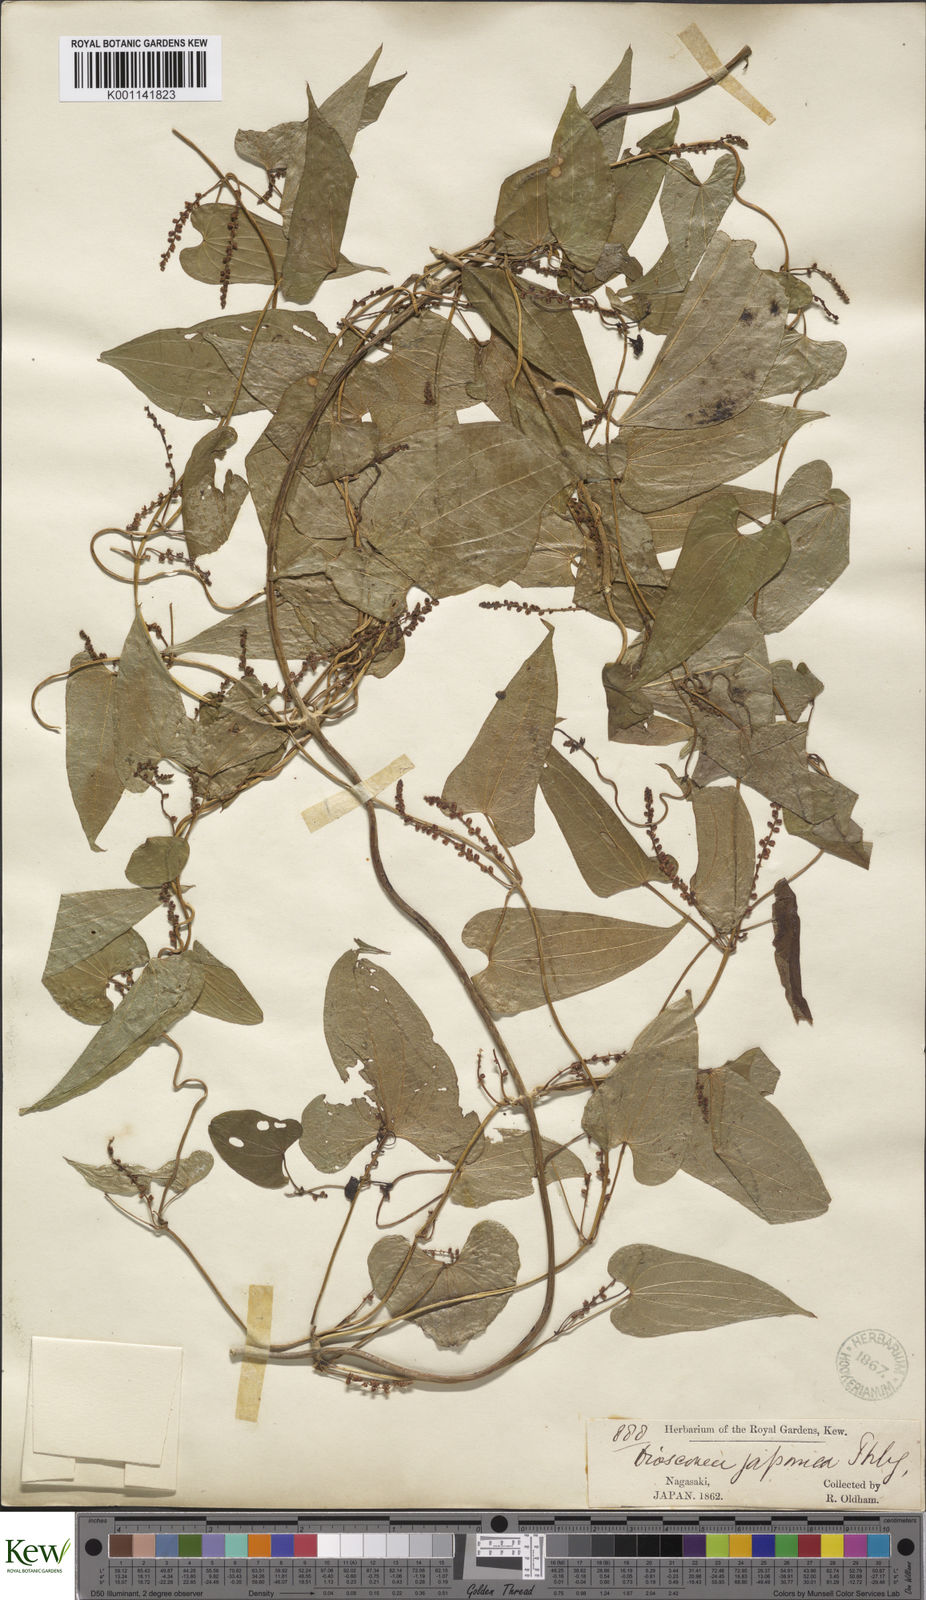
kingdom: Plantae
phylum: Tracheophyta
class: Liliopsida
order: Dioscoreales
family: Dioscoreaceae
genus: Dioscorea
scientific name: Dioscorea japonica
